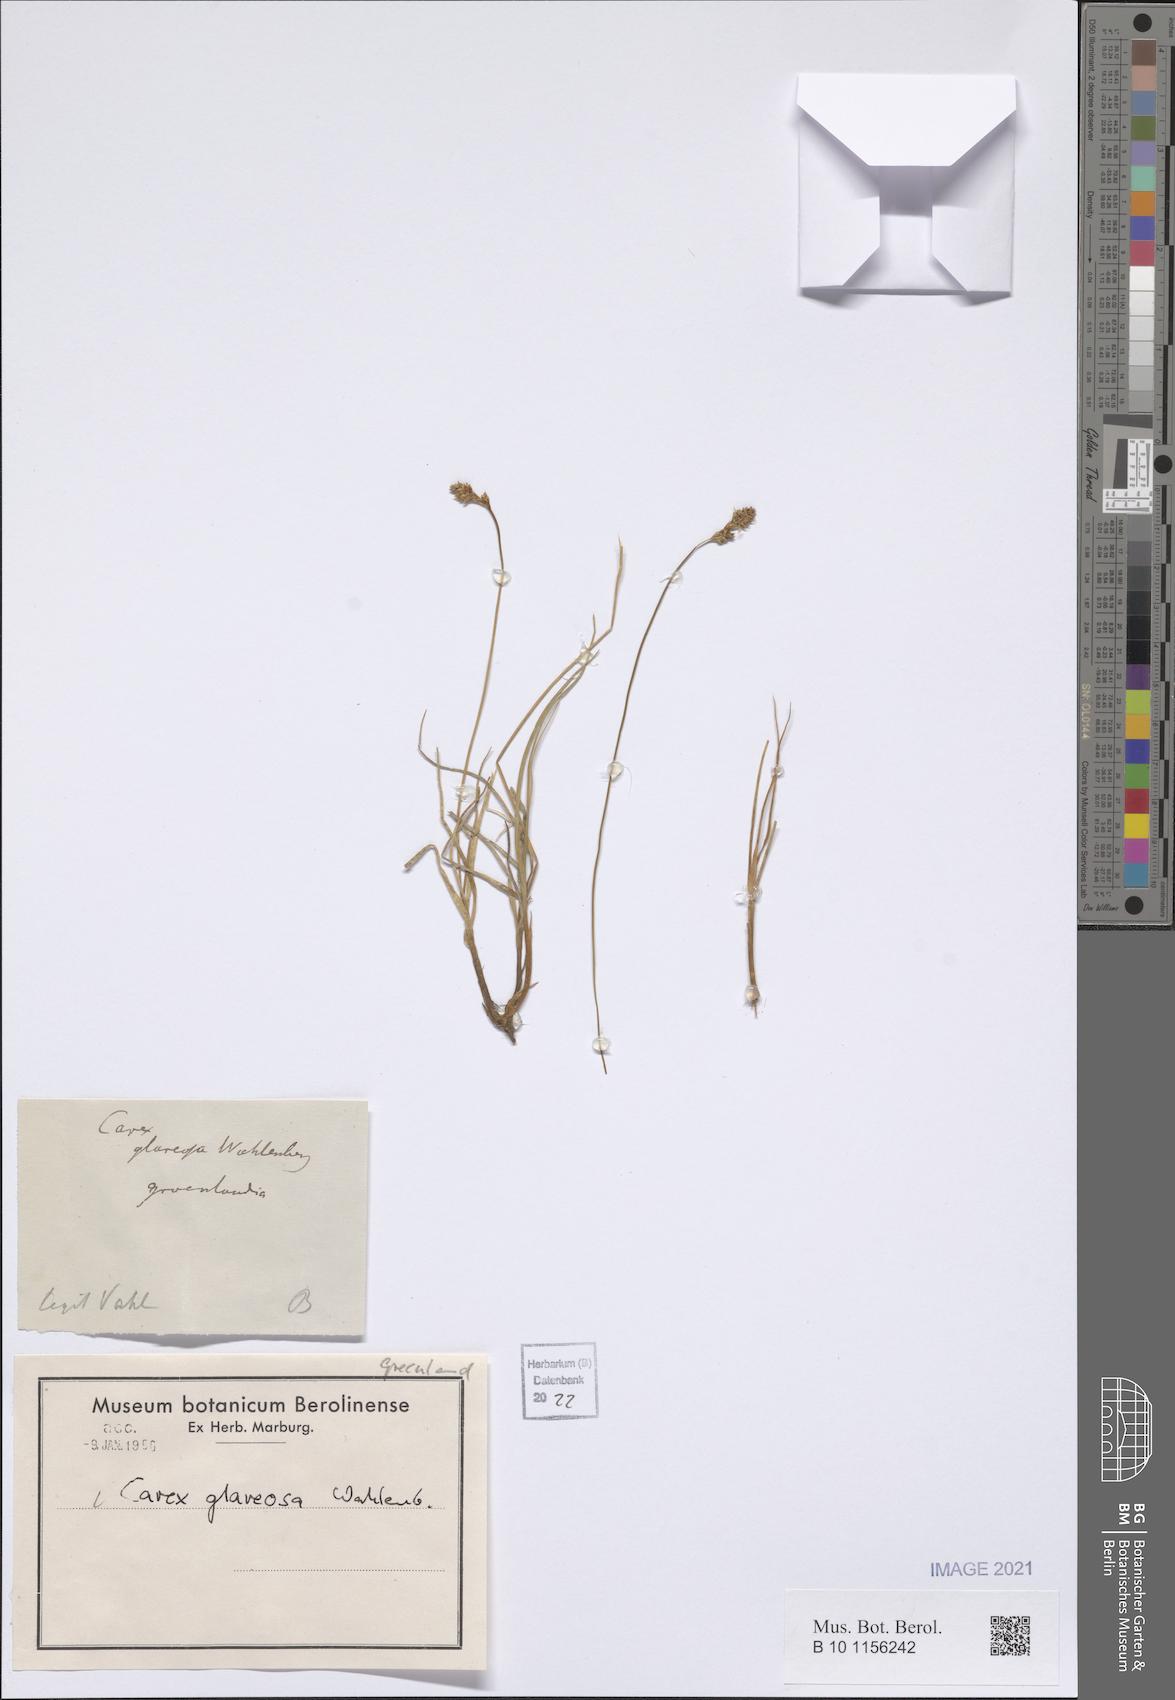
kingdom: Plantae
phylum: Tracheophyta
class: Liliopsida
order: Poales
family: Cyperaceae
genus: Carex
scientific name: Carex glareosa
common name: Clustered sedge
